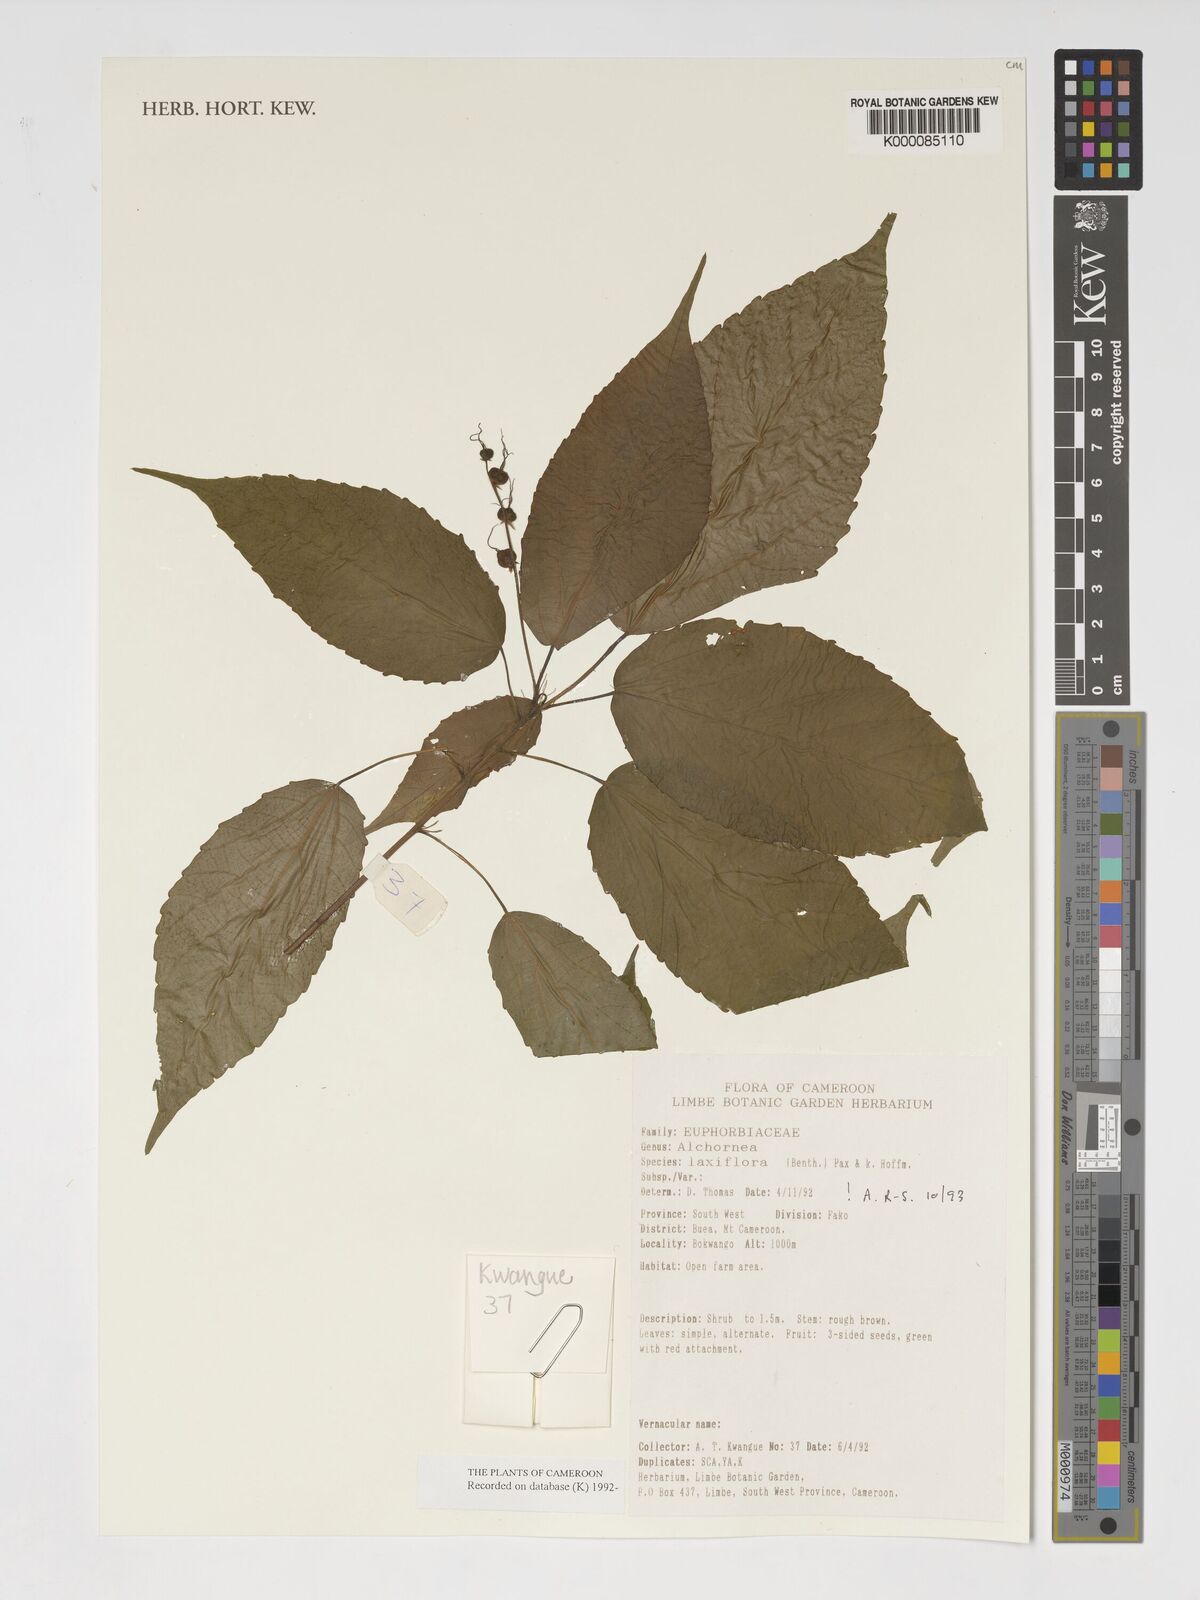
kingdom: Plantae
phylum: Tracheophyta
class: Magnoliopsida
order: Malpighiales
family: Euphorbiaceae
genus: Alchornea
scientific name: Alchornea laxiflora
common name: Lowveld bead-string
